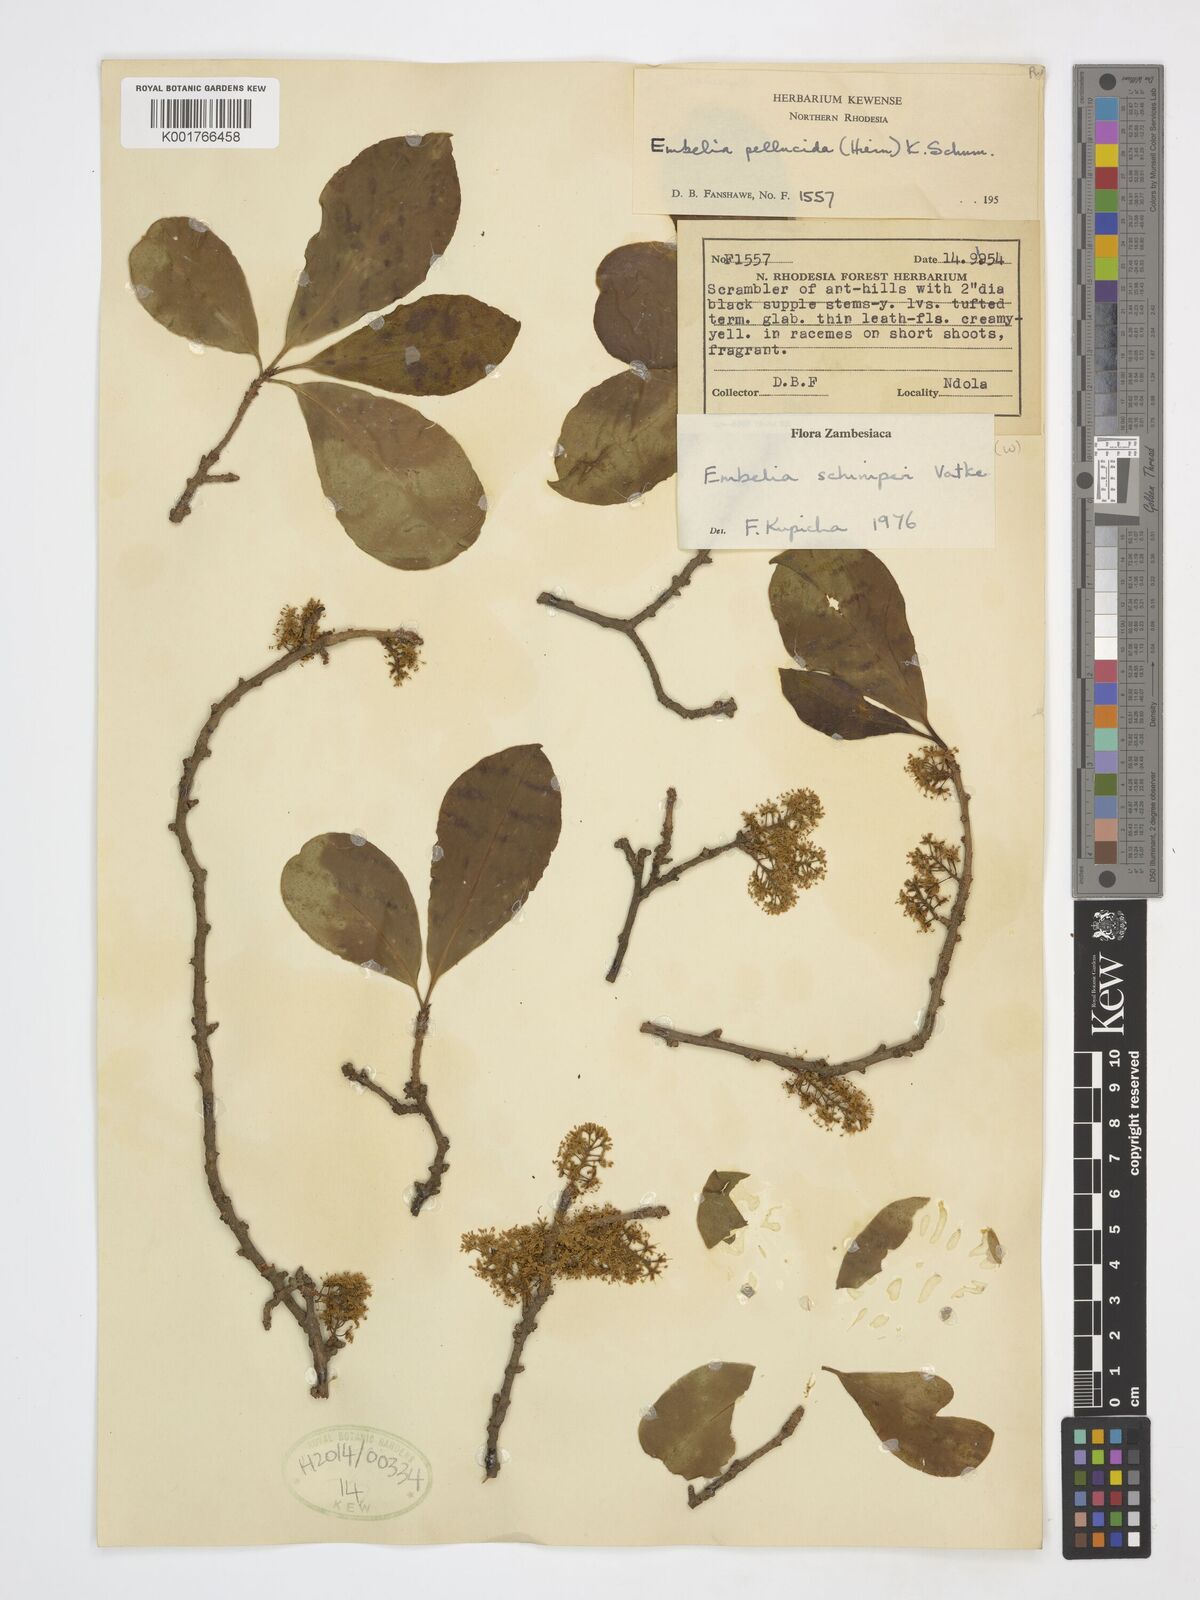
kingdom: Plantae
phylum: Tracheophyta
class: Magnoliopsida
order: Ericales
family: Primulaceae
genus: Embelia
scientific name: Embelia schimperi
